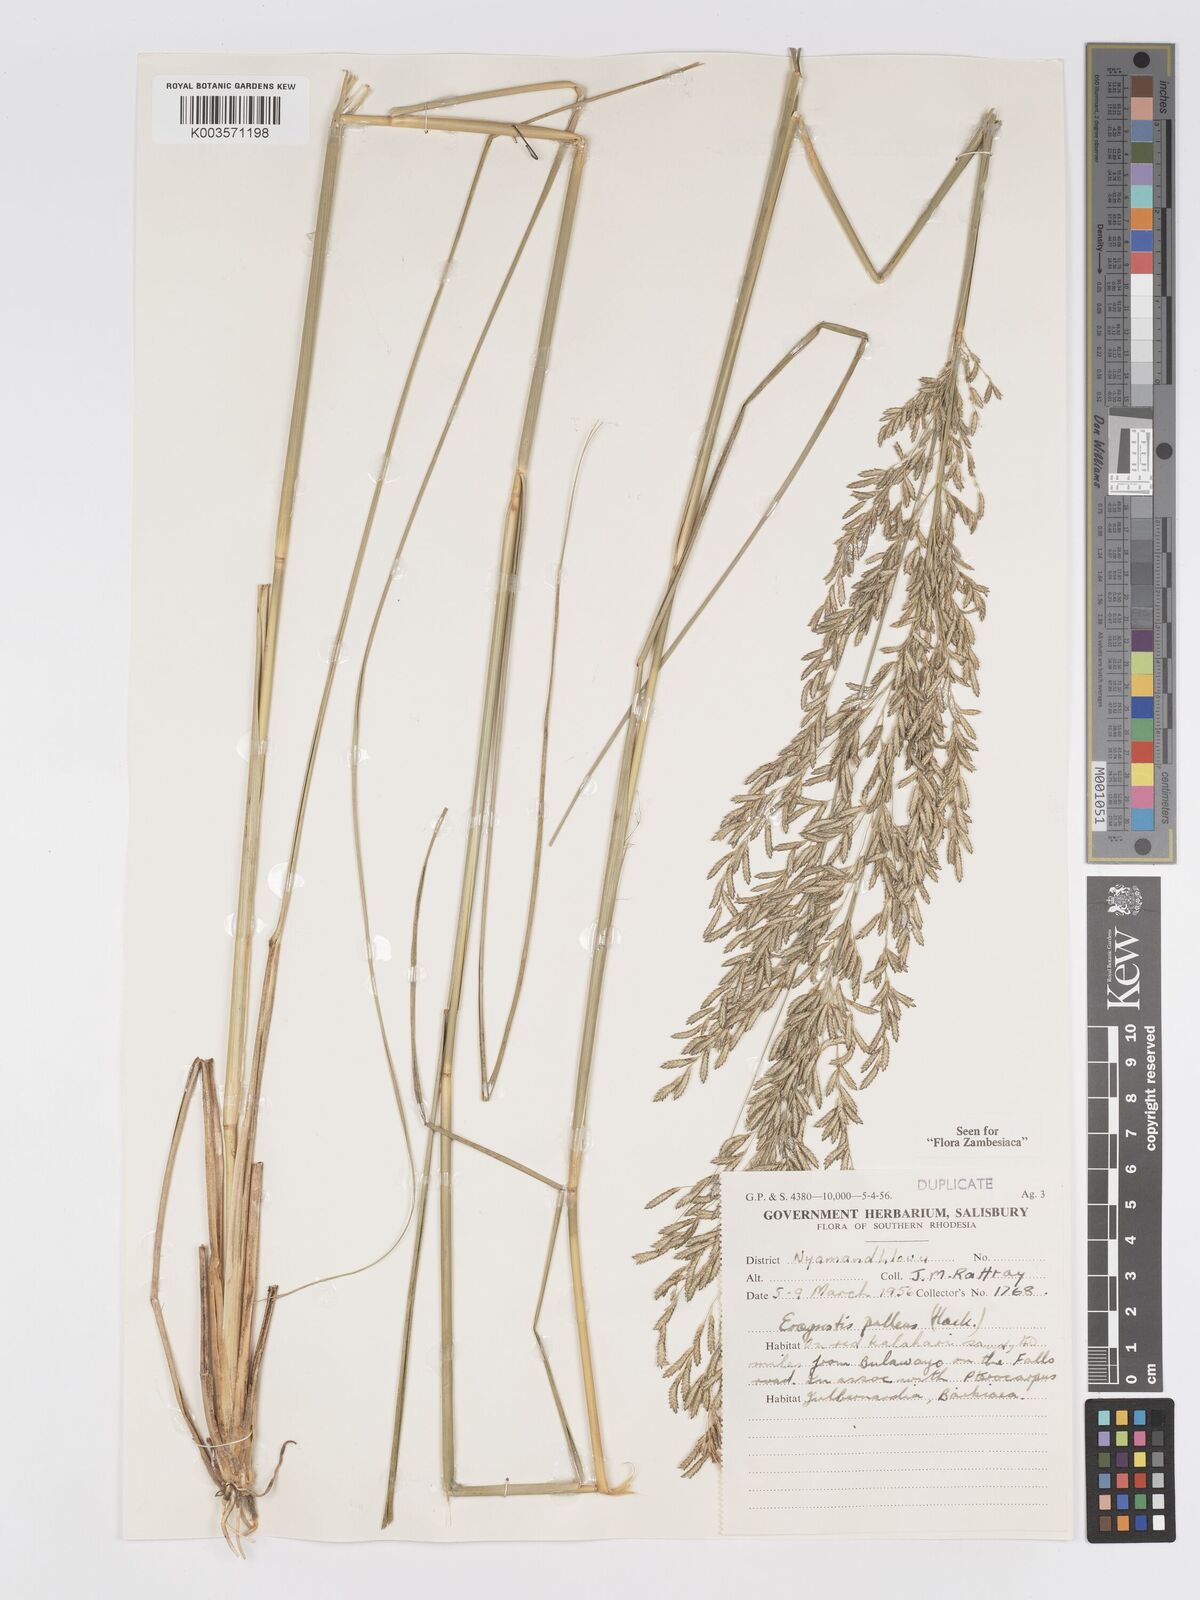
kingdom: Plantae
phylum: Tracheophyta
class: Liliopsida
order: Poales
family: Poaceae
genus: Eragrostis
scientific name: Eragrostis pallens
